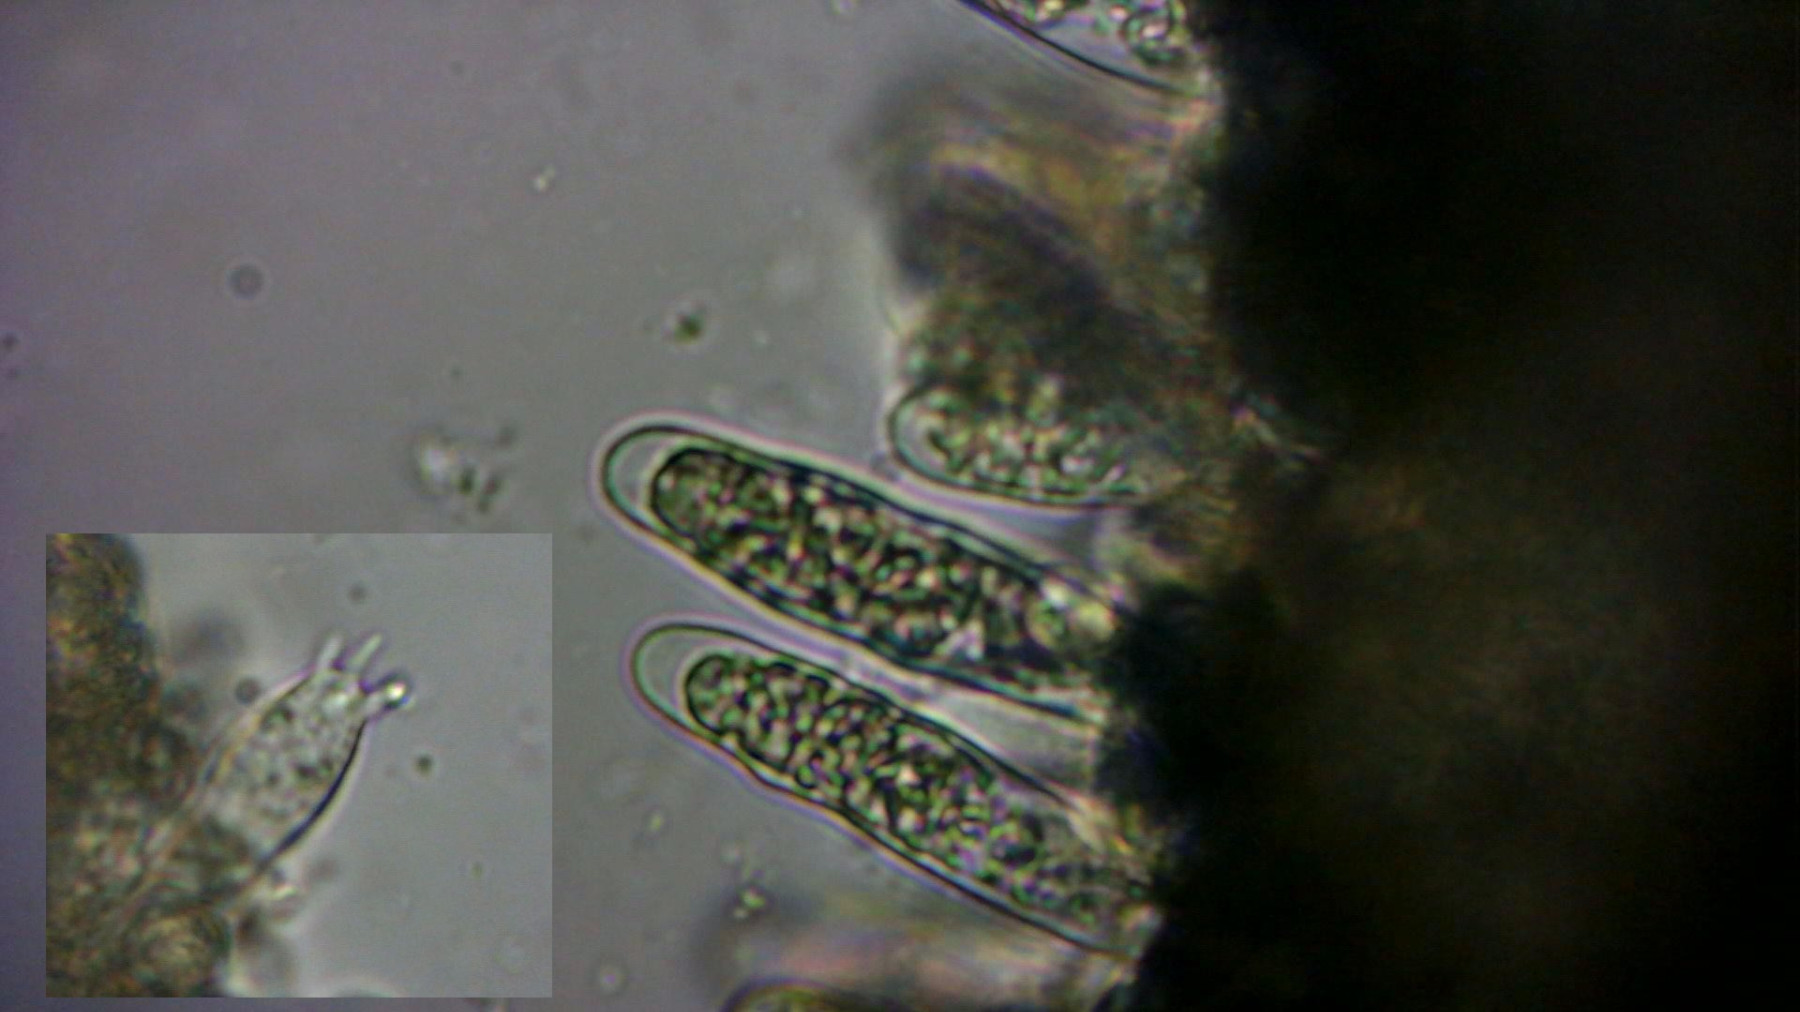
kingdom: Fungi
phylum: Basidiomycota
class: Agaricomycetes
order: Russulales
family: Russulaceae
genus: Russula
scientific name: Russula depallens
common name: falmende skørhat
